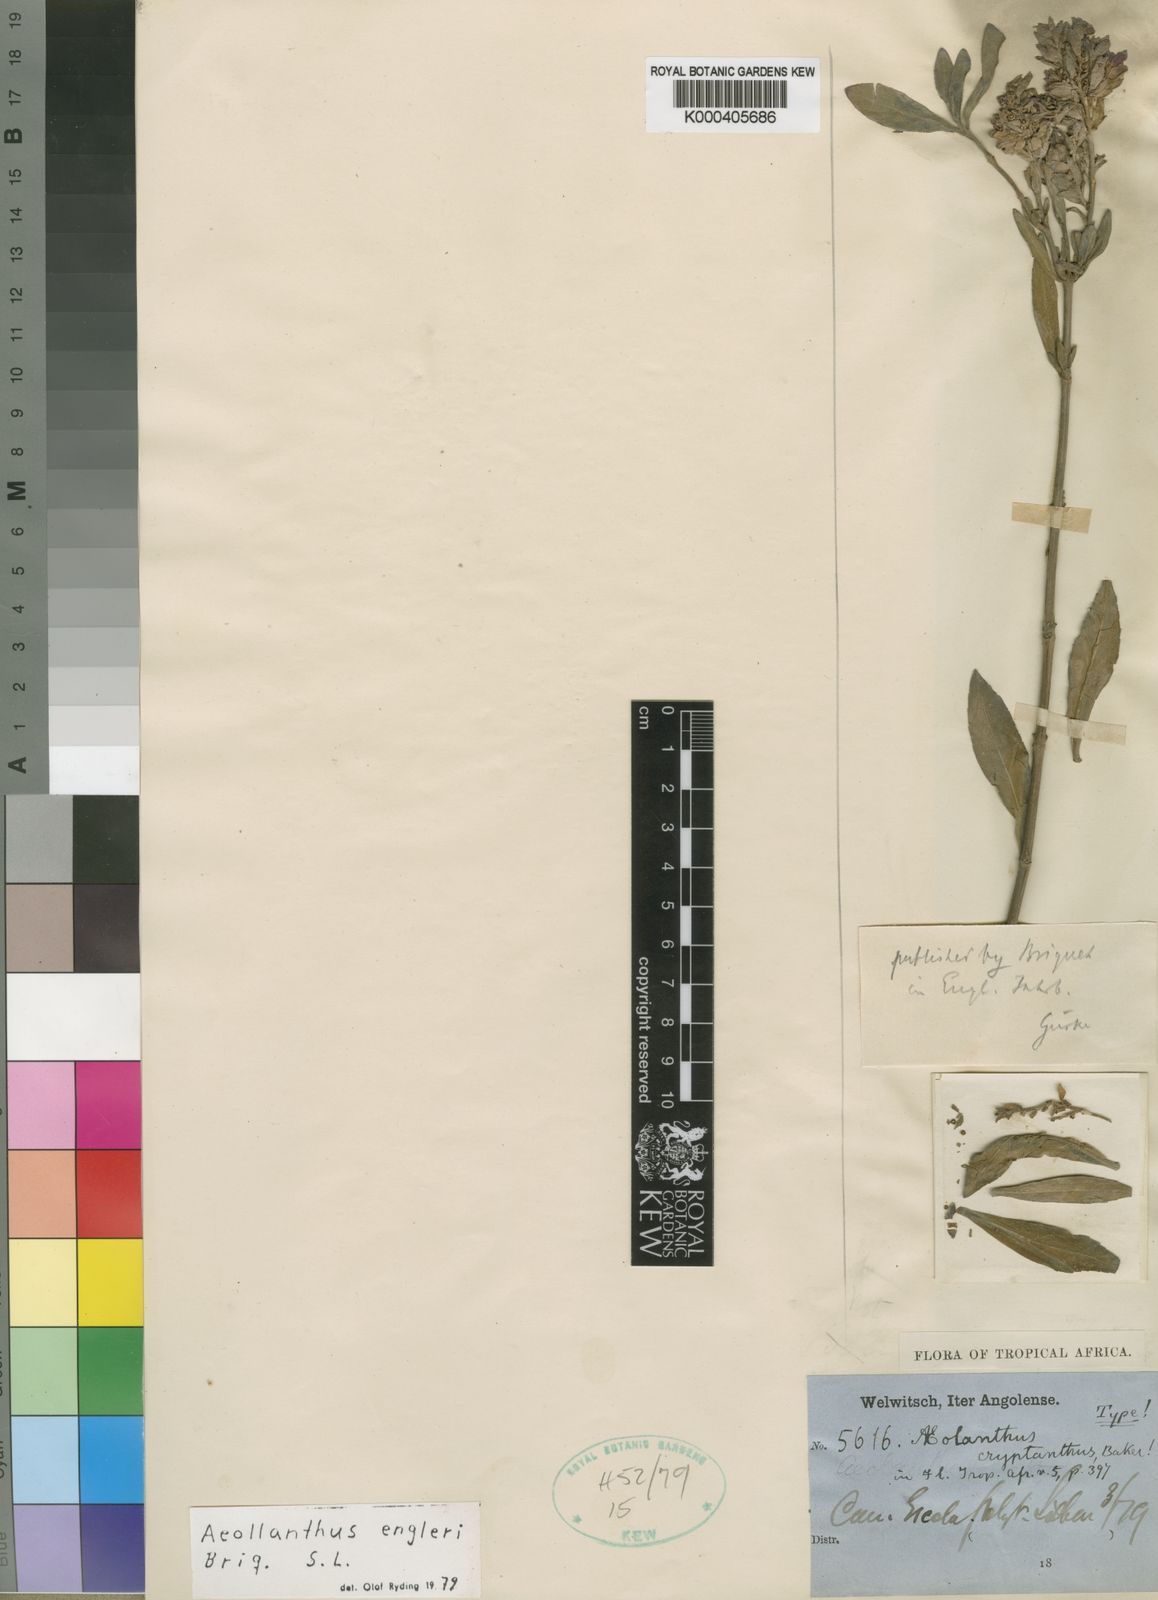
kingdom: Plantae
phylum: Tracheophyta
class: Magnoliopsida
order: Lamiales
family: Lamiaceae
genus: Aeollanthus
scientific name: Aeollanthus engleri
